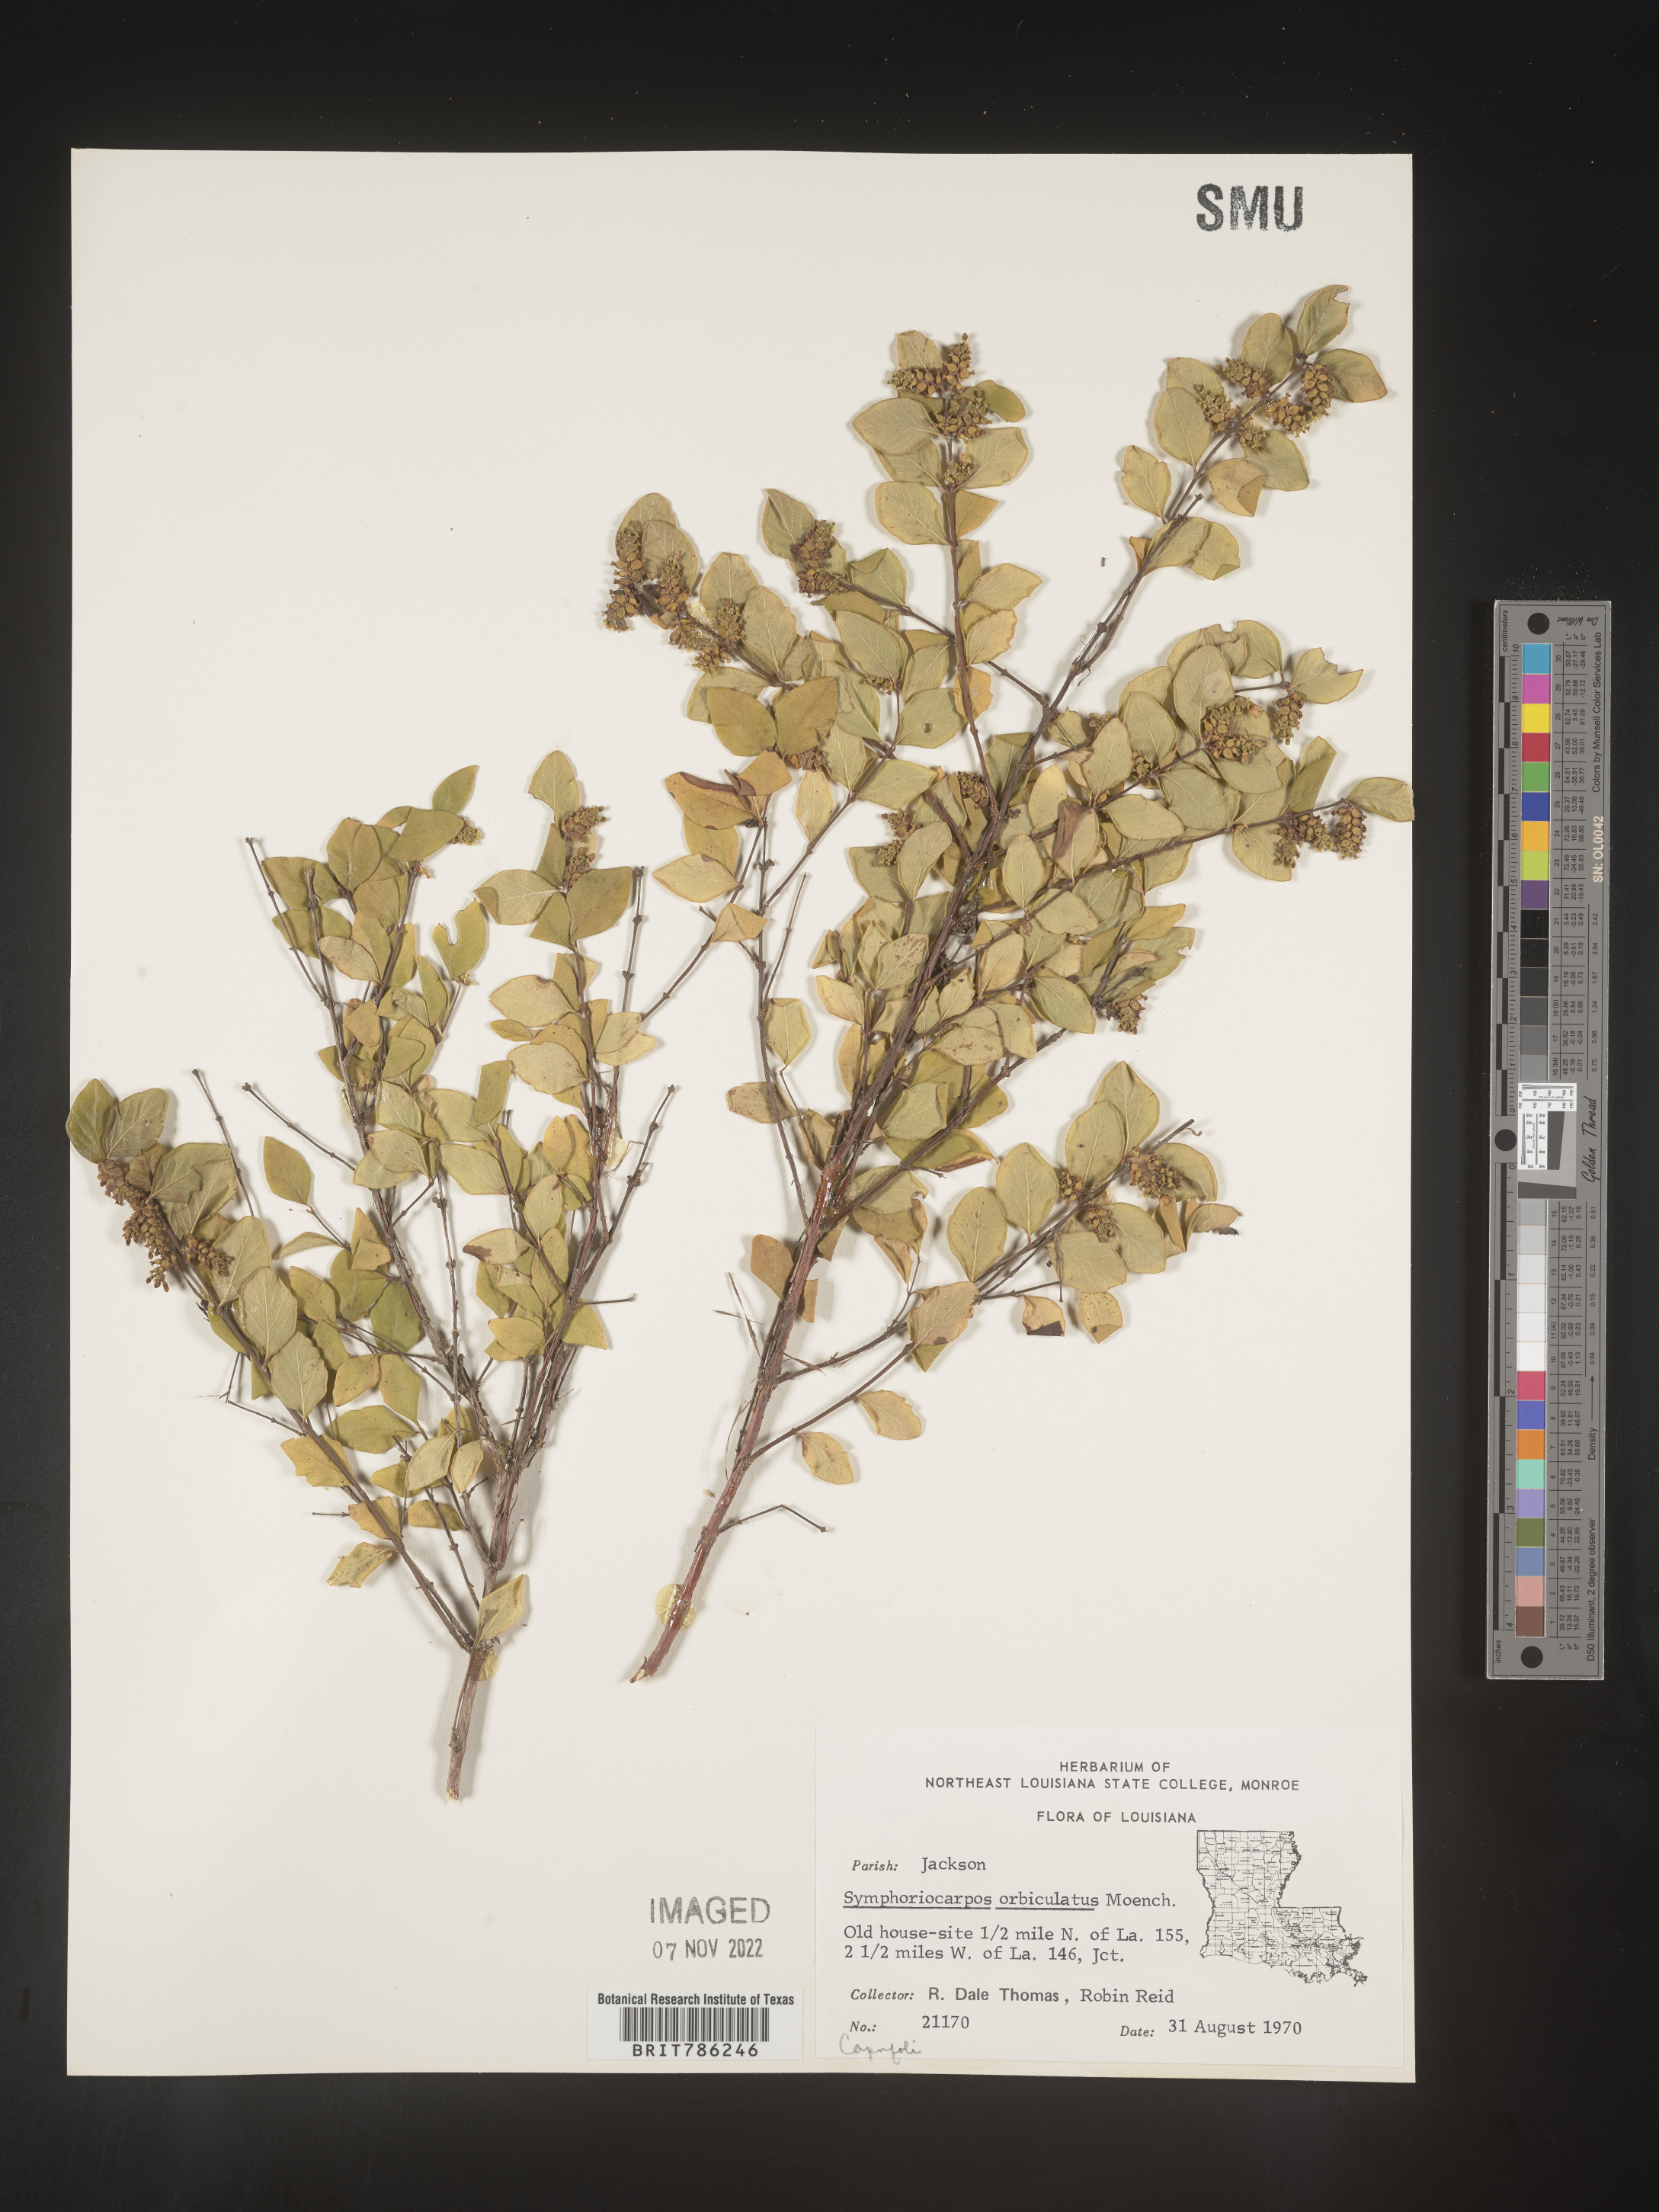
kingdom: Plantae
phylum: Tracheophyta
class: Magnoliopsida
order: Dipsacales
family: Caprifoliaceae
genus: Symphoricarpos
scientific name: Symphoricarpos orbiculatus
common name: Coralberry
